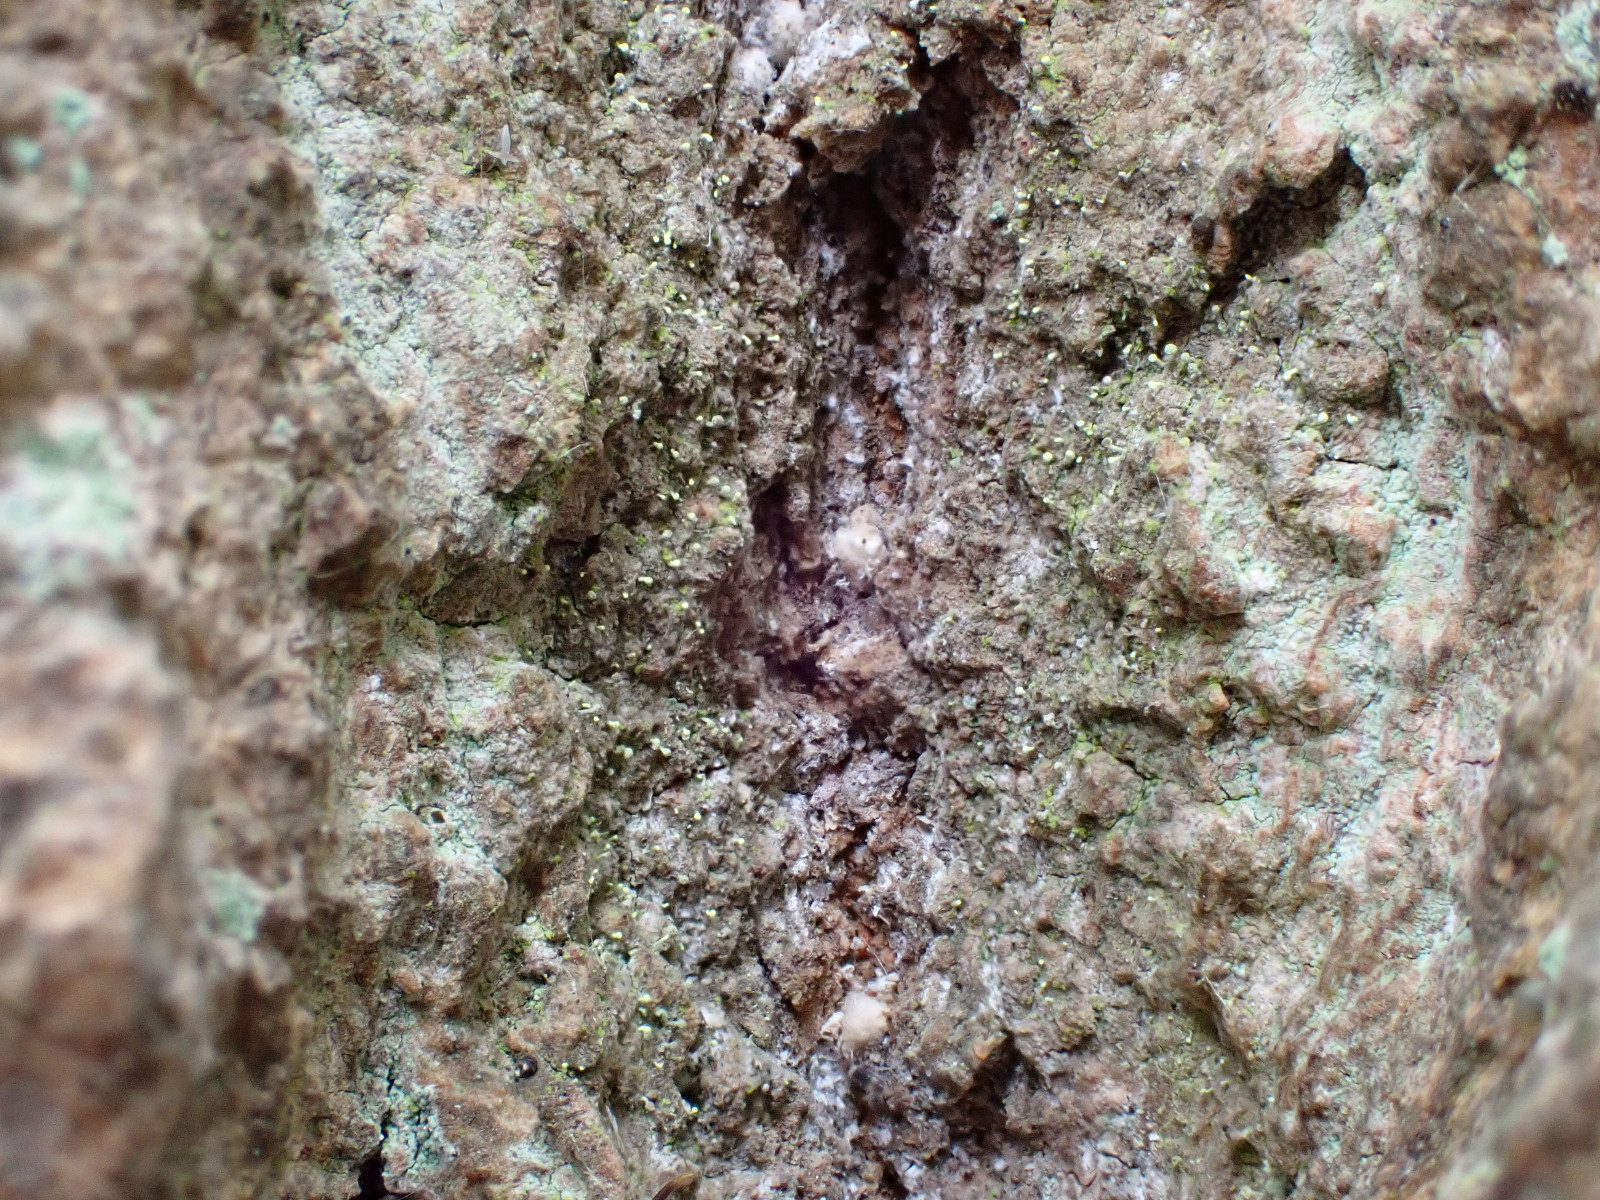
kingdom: Fungi
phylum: Ascomycota
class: Coniocybomycetes
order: Coniocybales
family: Coniocybaceae
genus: Chaenotheca
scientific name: Chaenotheca brachypoda
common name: gulgrøn knappenålslav
